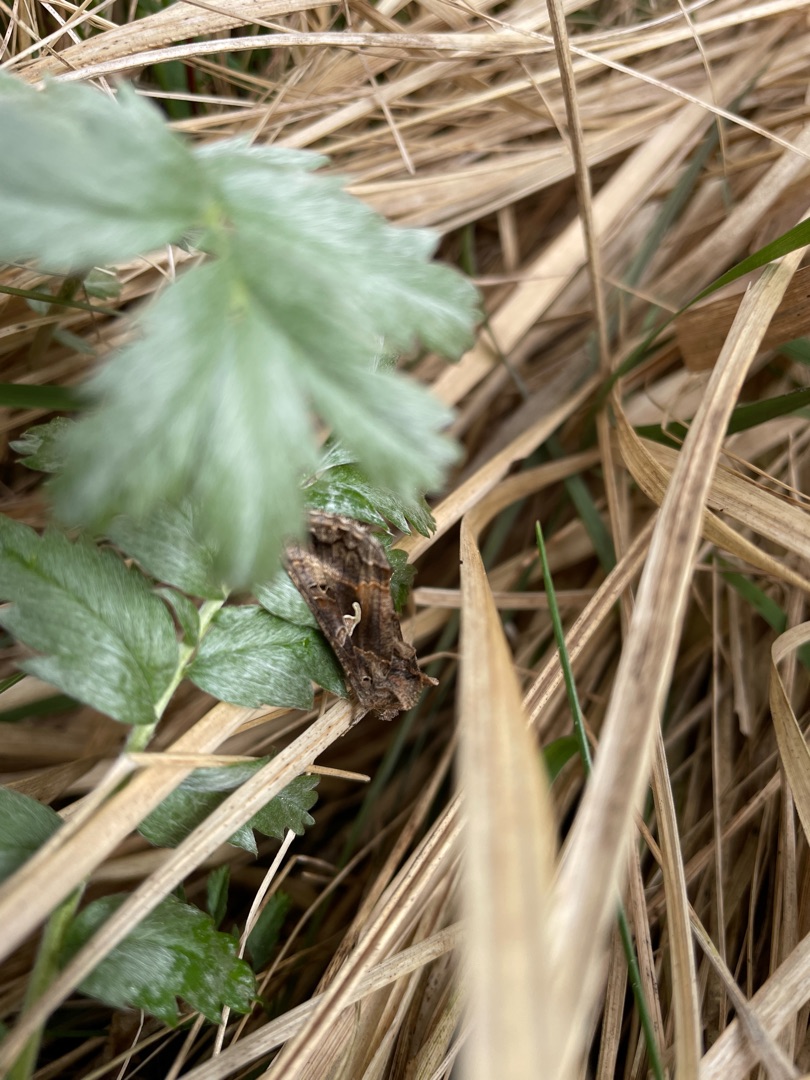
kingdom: Animalia
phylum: Arthropoda
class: Insecta
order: Lepidoptera
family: Noctuidae
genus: Autographa
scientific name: Autographa gamma
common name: Gammaugle
